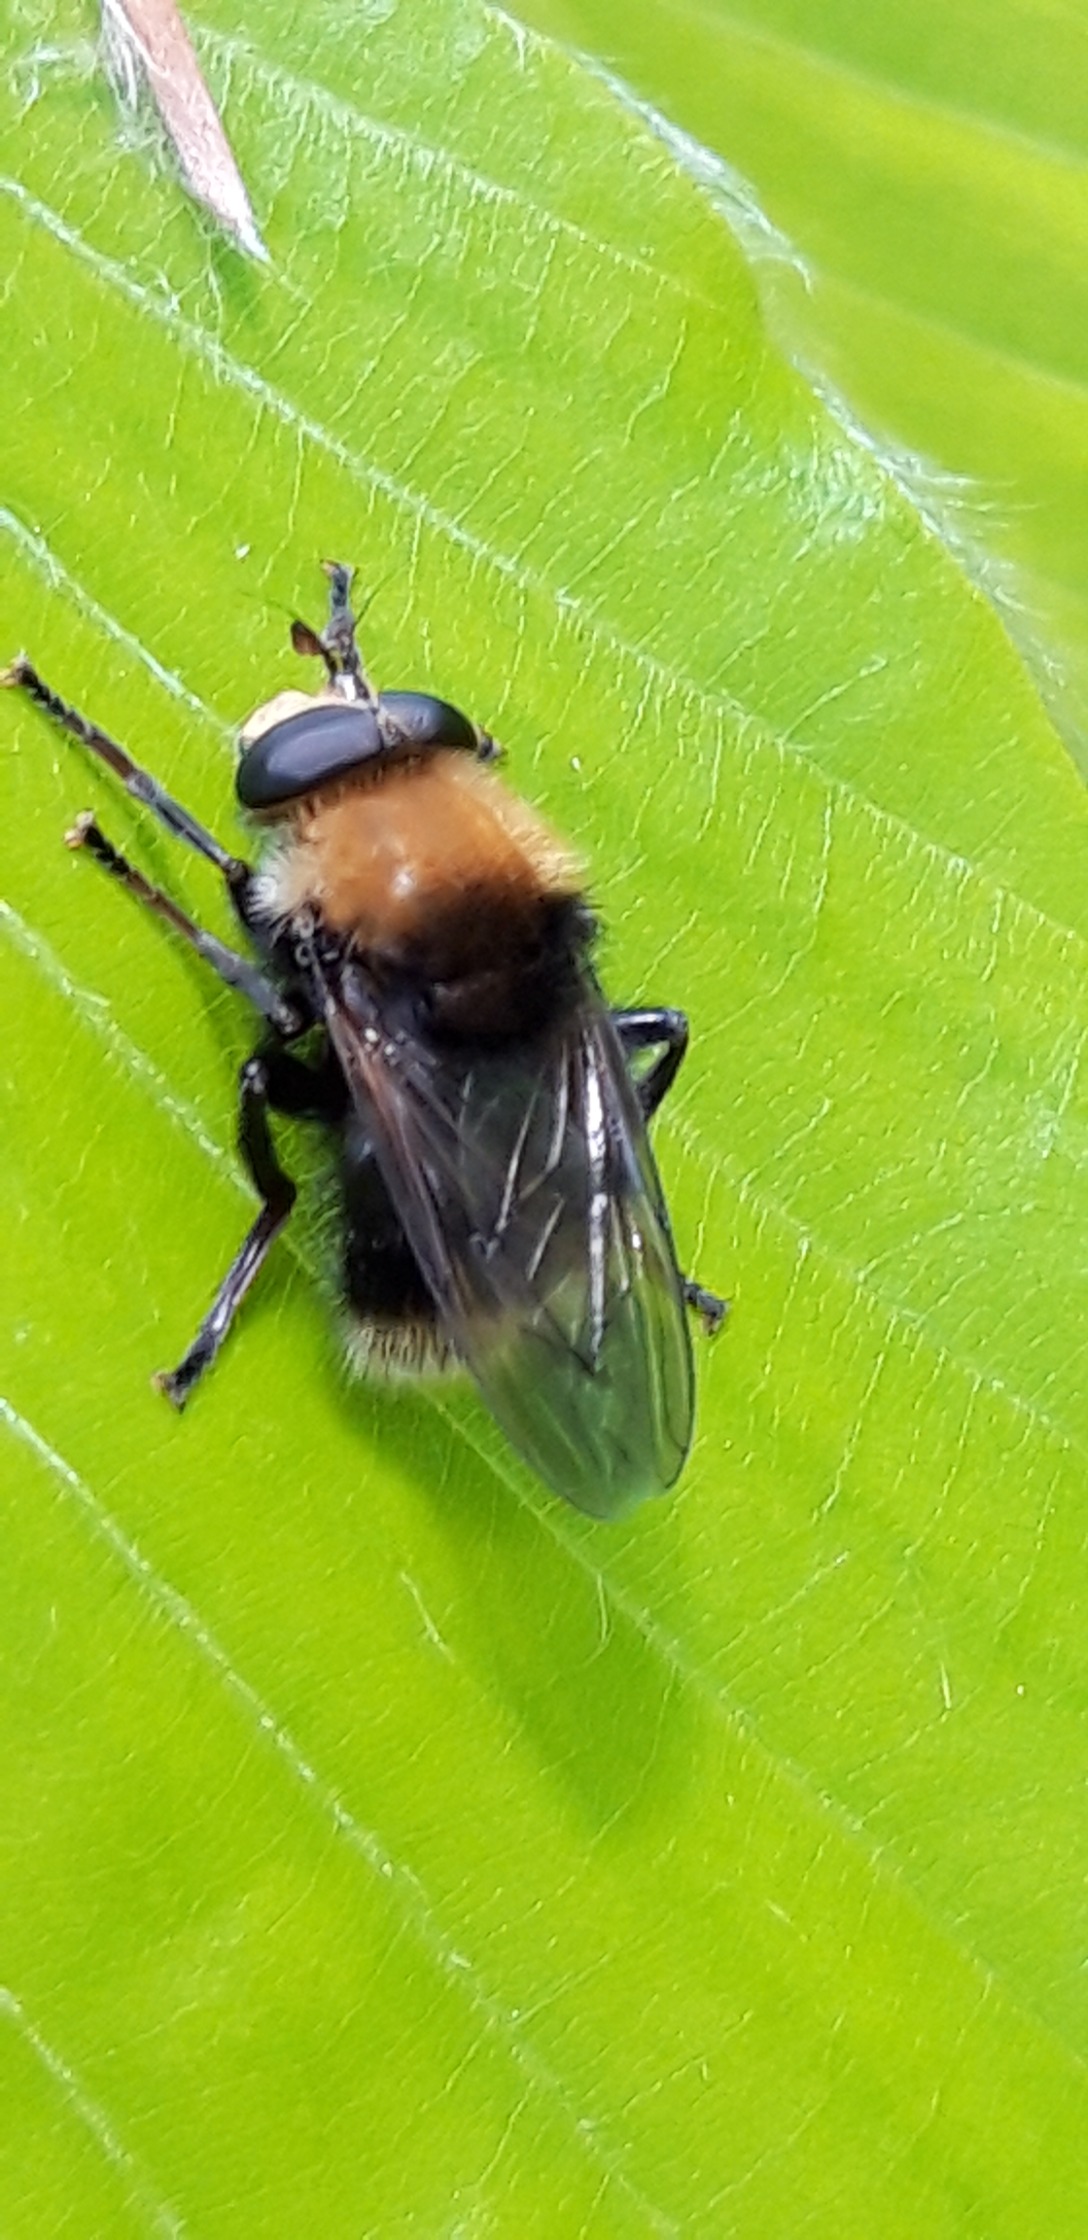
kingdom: Animalia
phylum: Arthropoda
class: Insecta
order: Diptera
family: Syrphidae
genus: Criorhina
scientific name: Criorhina berberina
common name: Tjørne-pelssvirreflue
